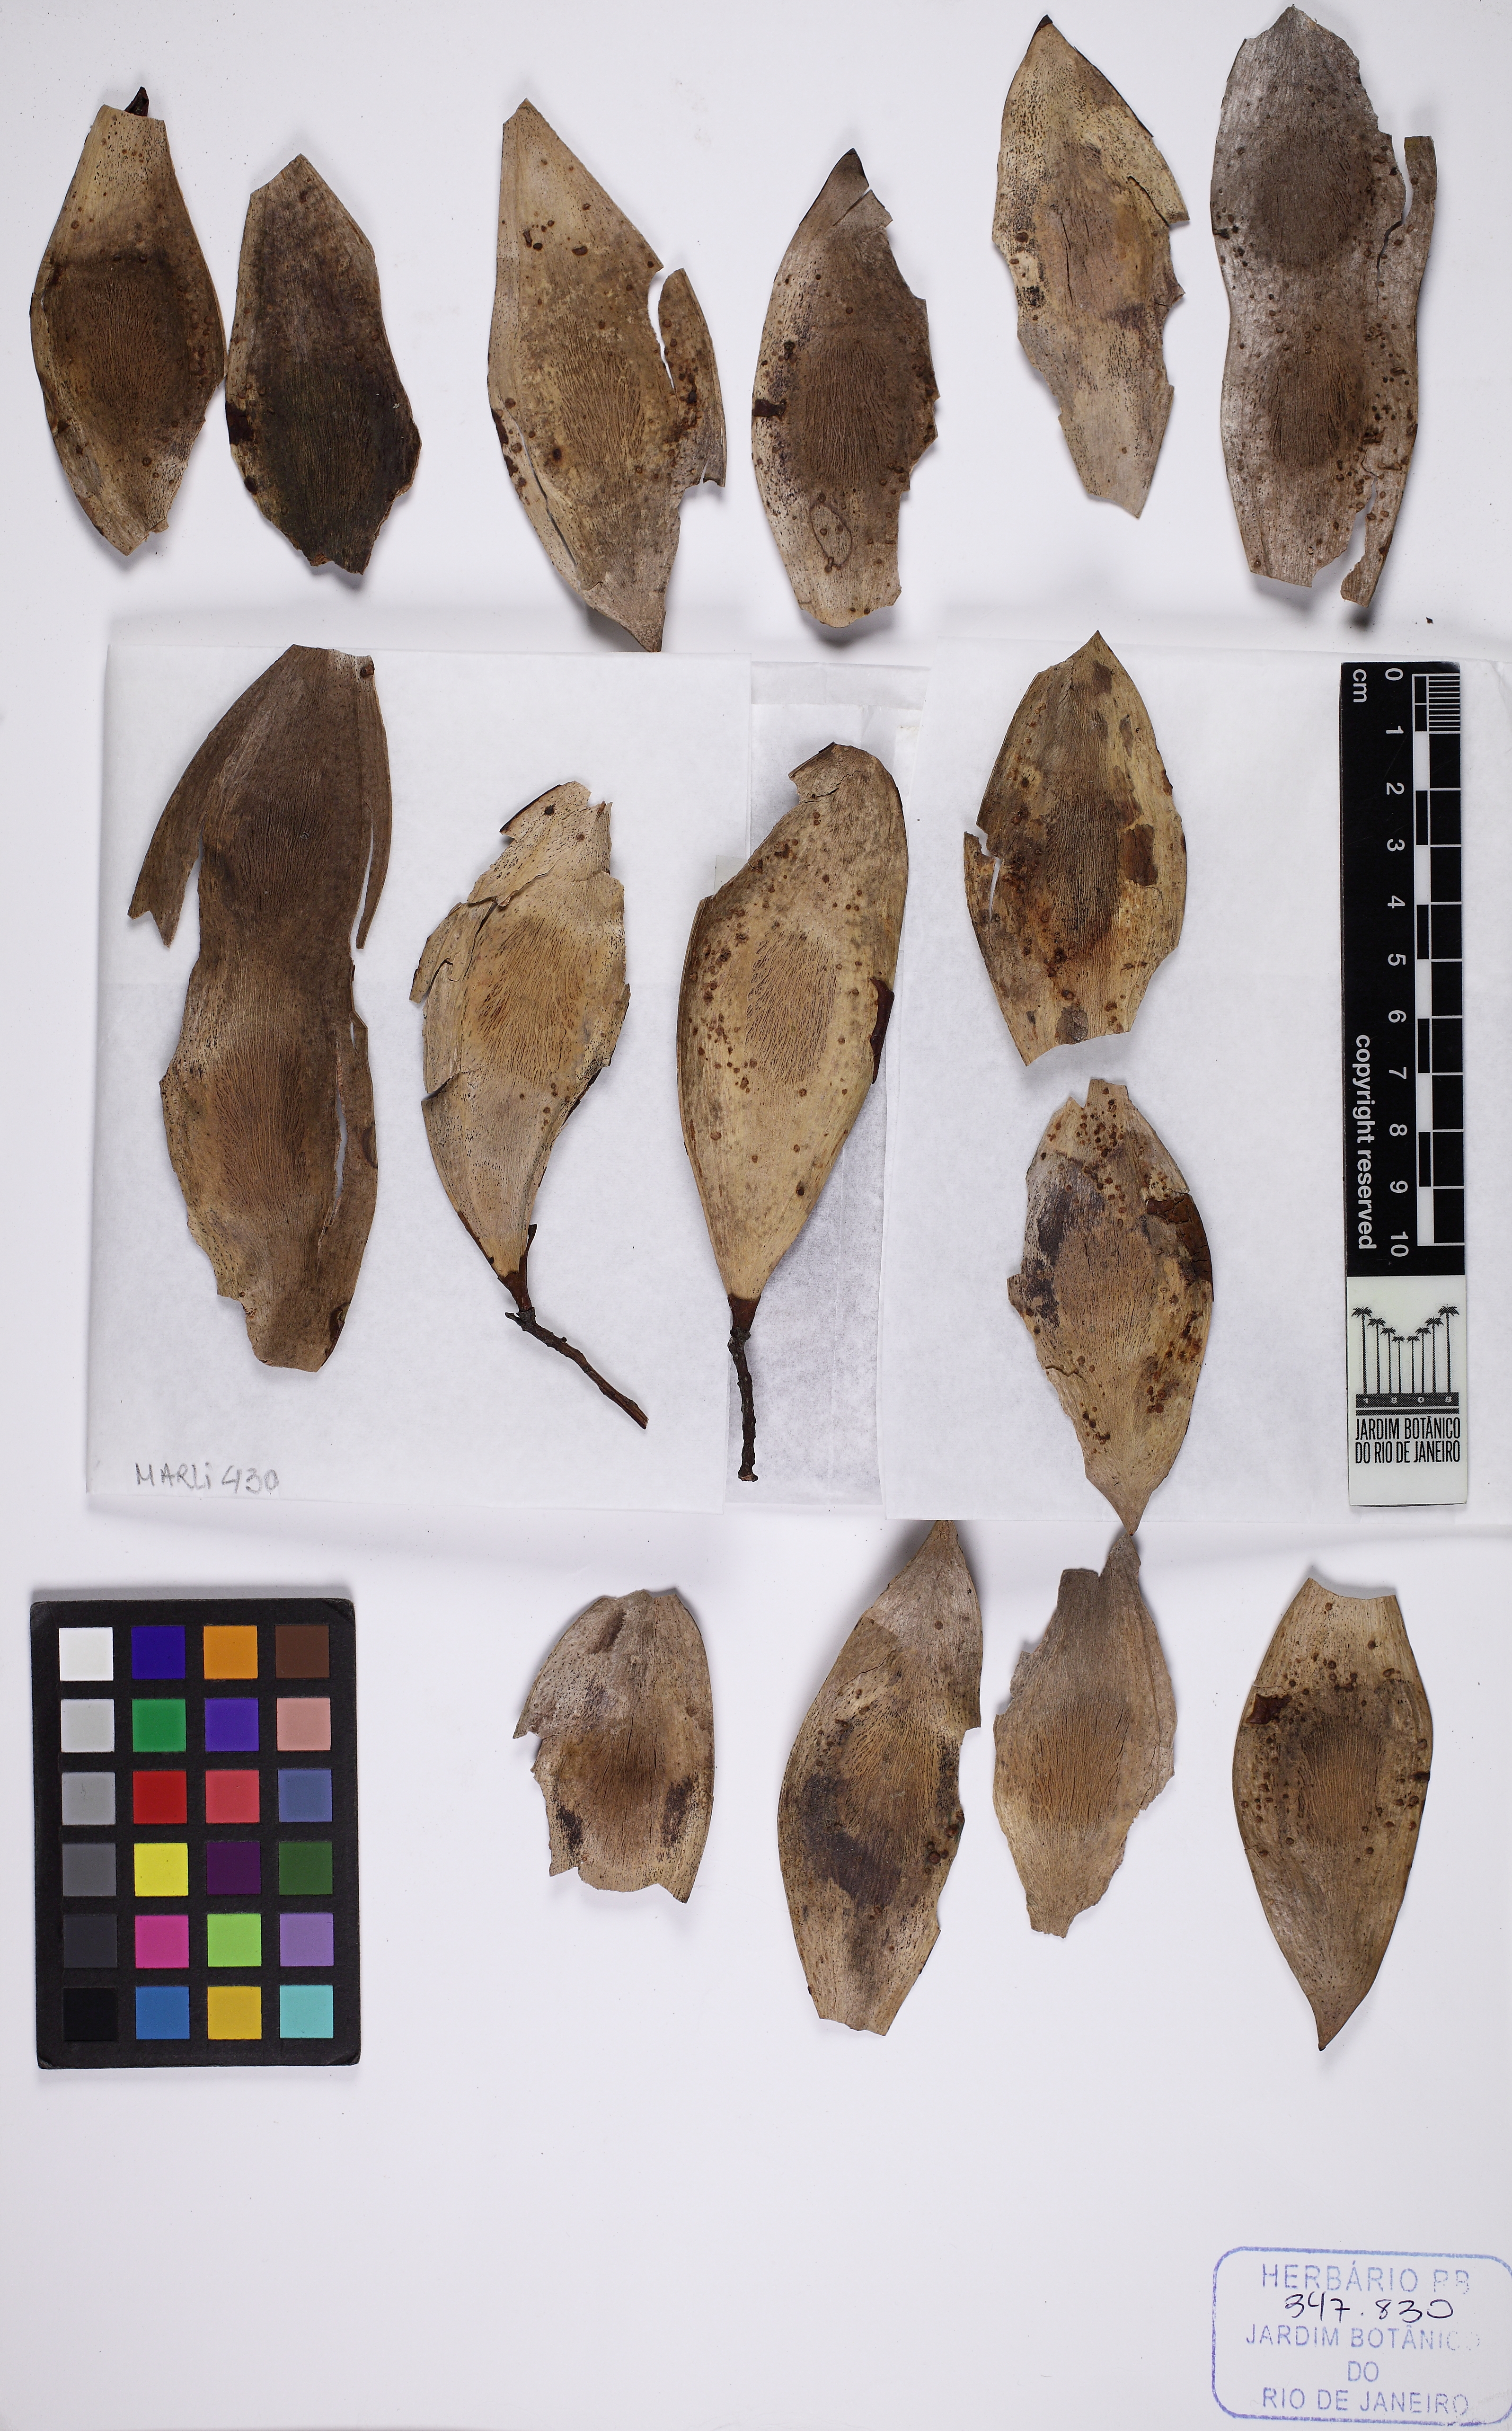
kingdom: Plantae
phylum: Tracheophyta
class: Magnoliopsida
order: Fabales
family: Fabaceae
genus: Tachigali
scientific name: Tachigali duckei
